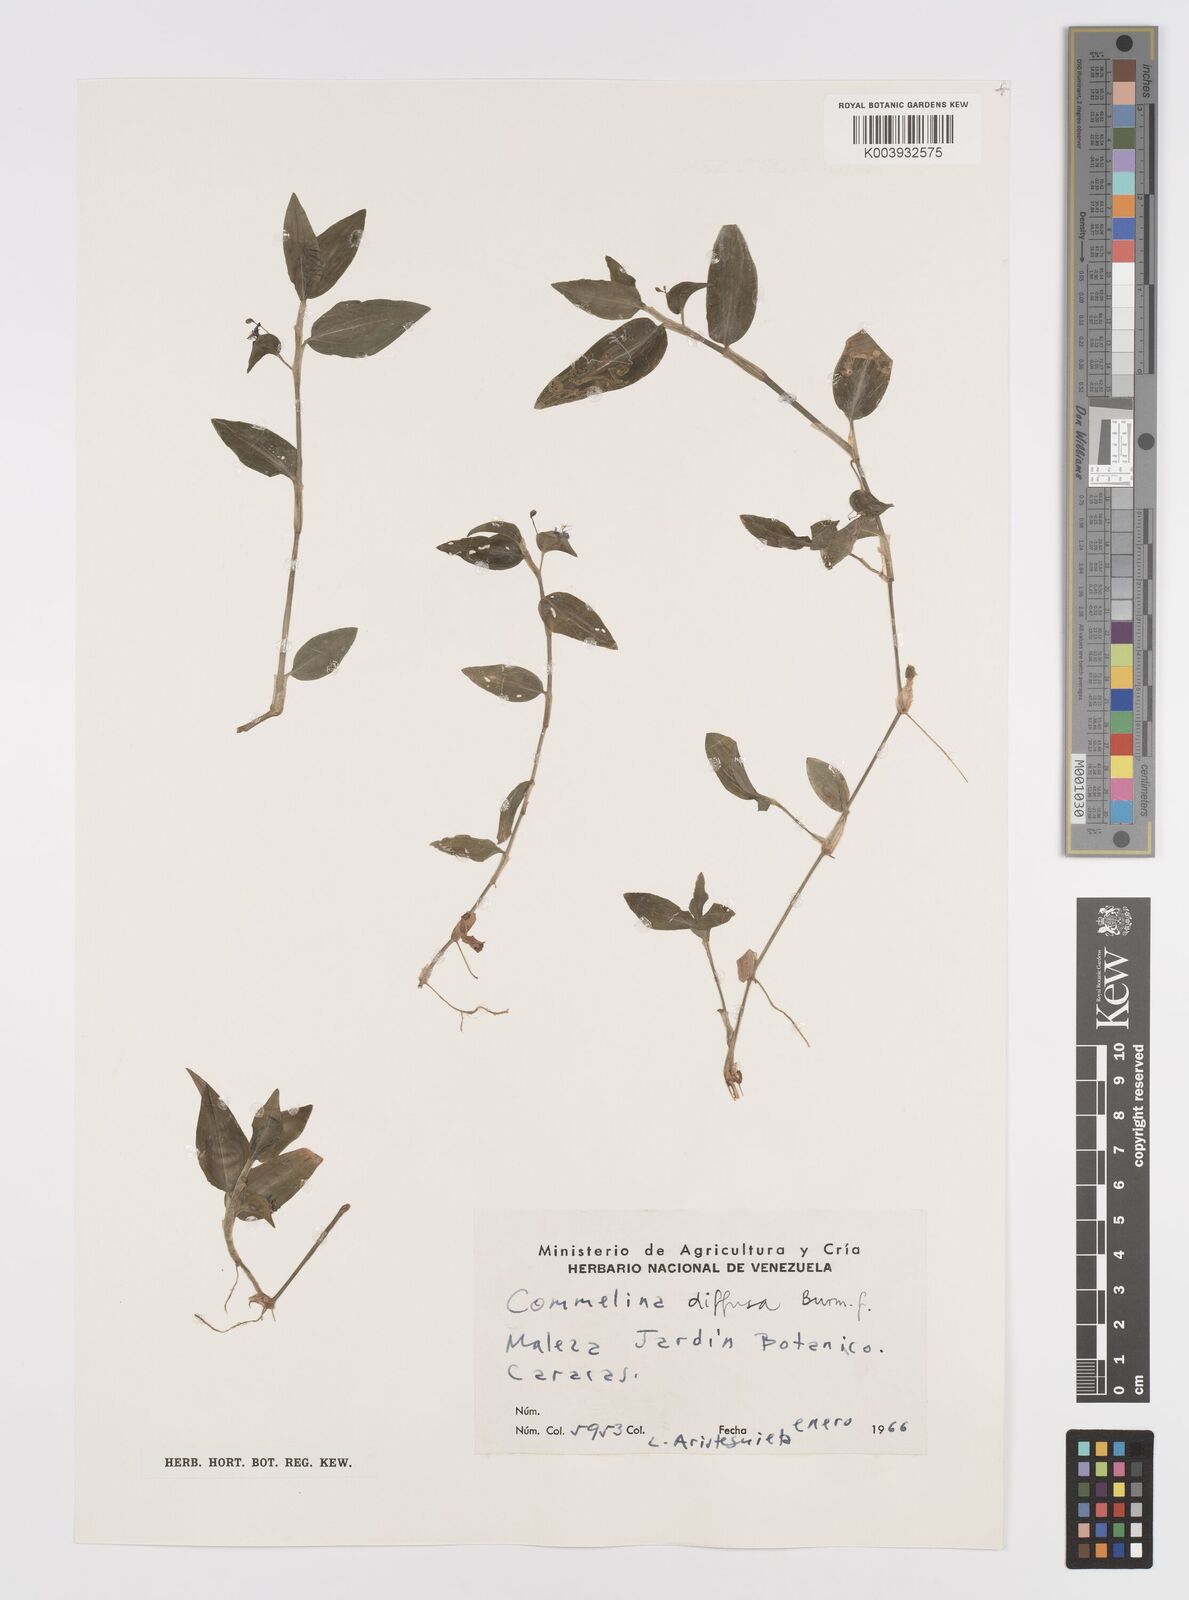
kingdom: Plantae
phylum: Tracheophyta
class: Liliopsida
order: Commelinales
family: Commelinaceae
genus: Commelina
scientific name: Commelina diffusa
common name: Climbing dayflower
